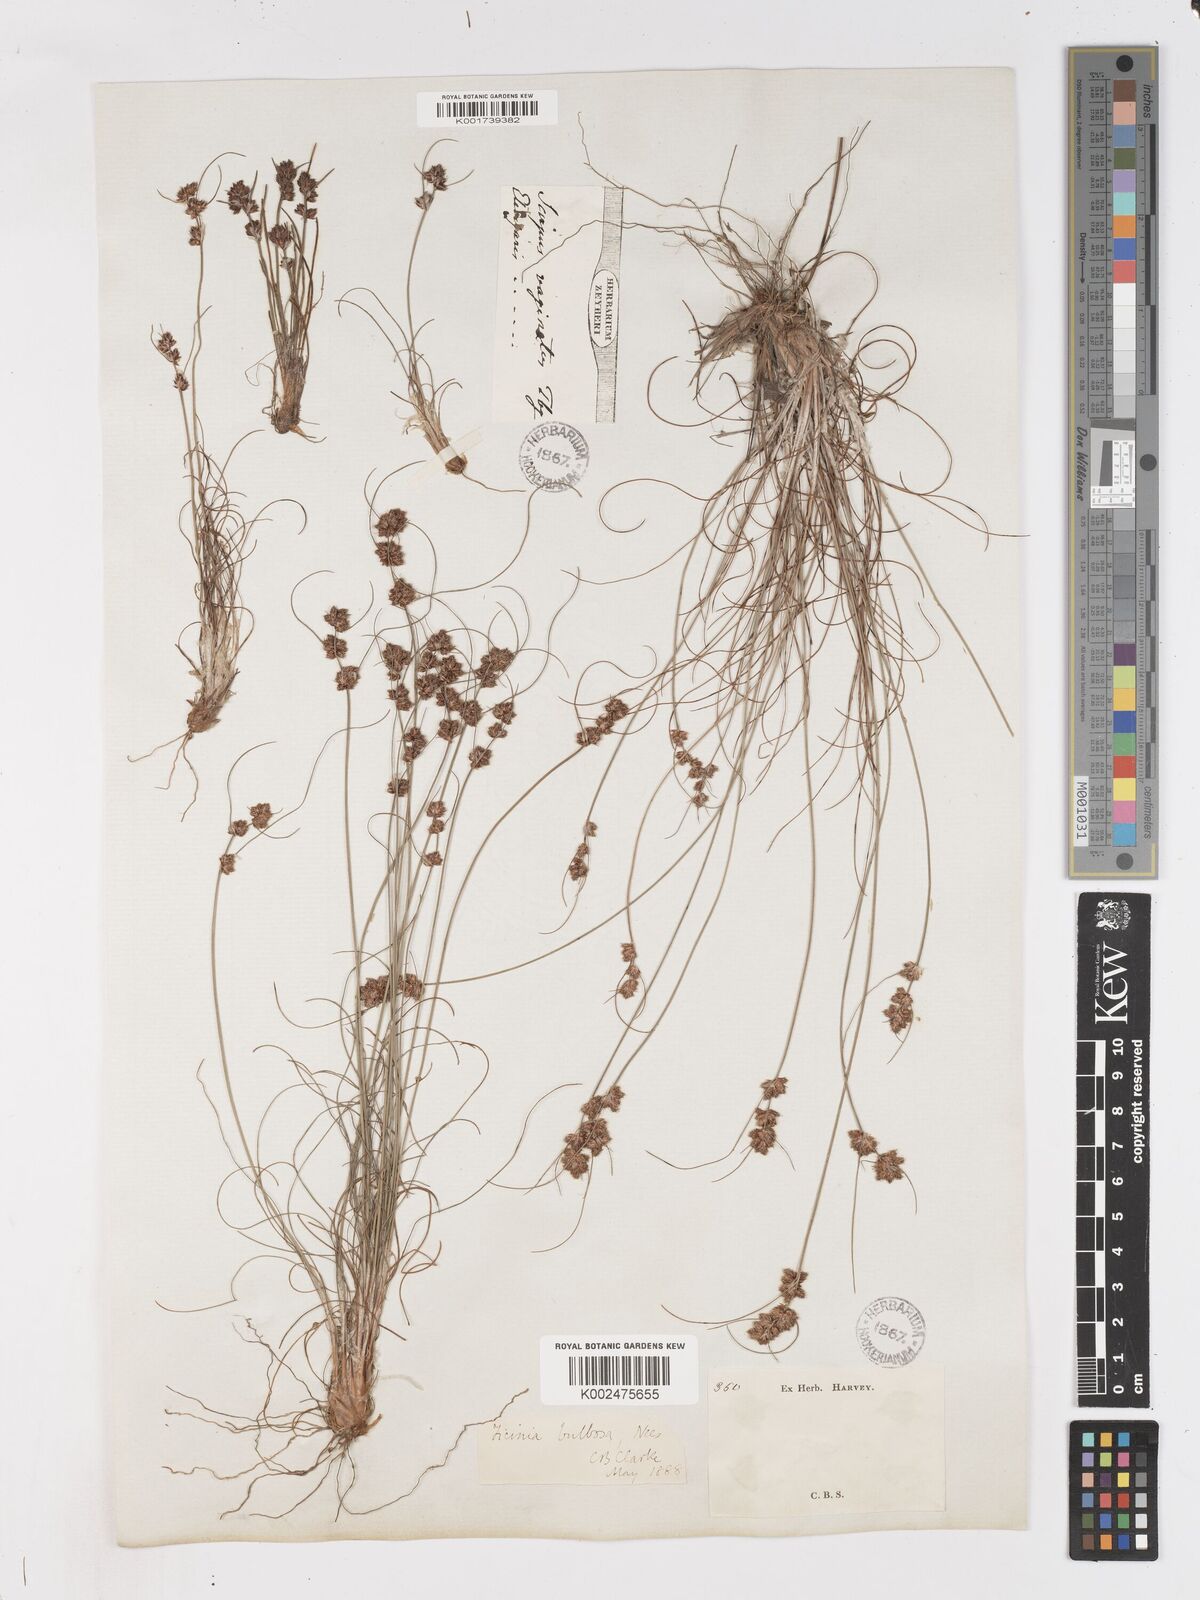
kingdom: Plantae
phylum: Tracheophyta
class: Liliopsida
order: Poales
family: Cyperaceae
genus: Ficinia
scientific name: Ficinia bulbosa
